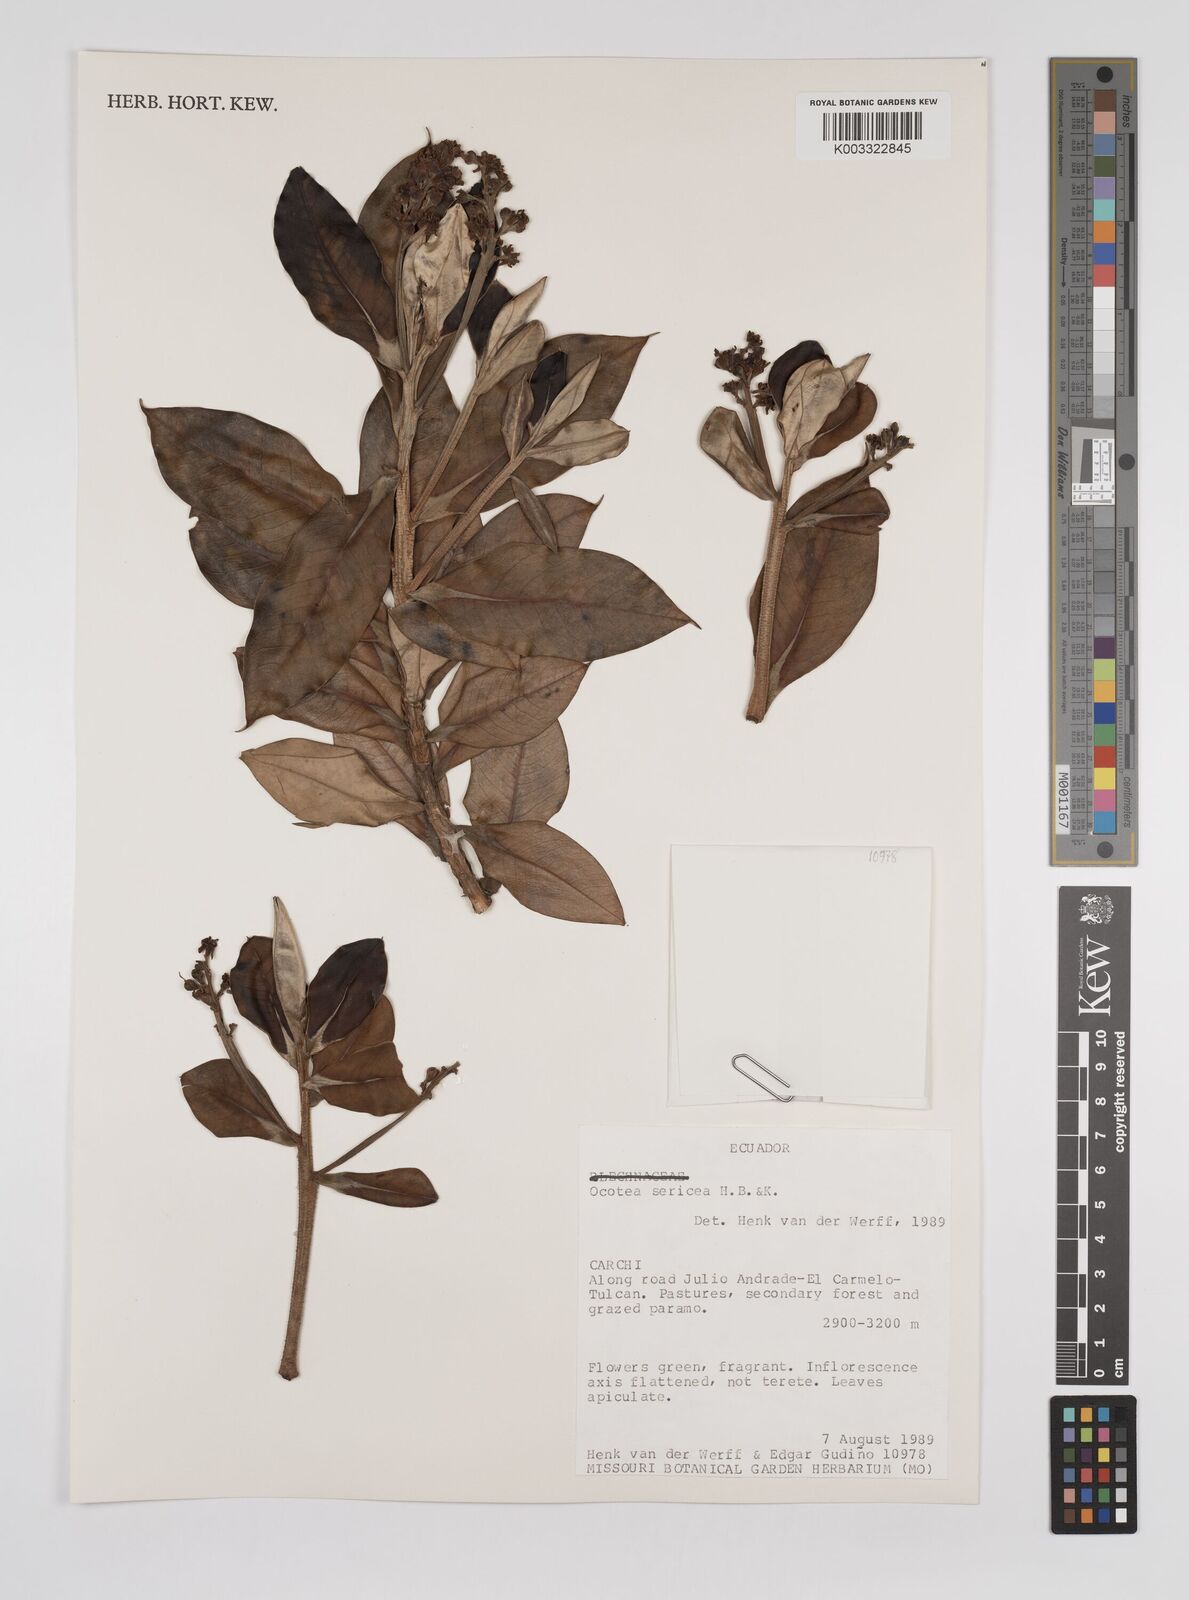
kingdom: Plantae
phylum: Tracheophyta
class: Magnoliopsida
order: Laurales
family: Lauraceae
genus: Ocotea
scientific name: Ocotea
